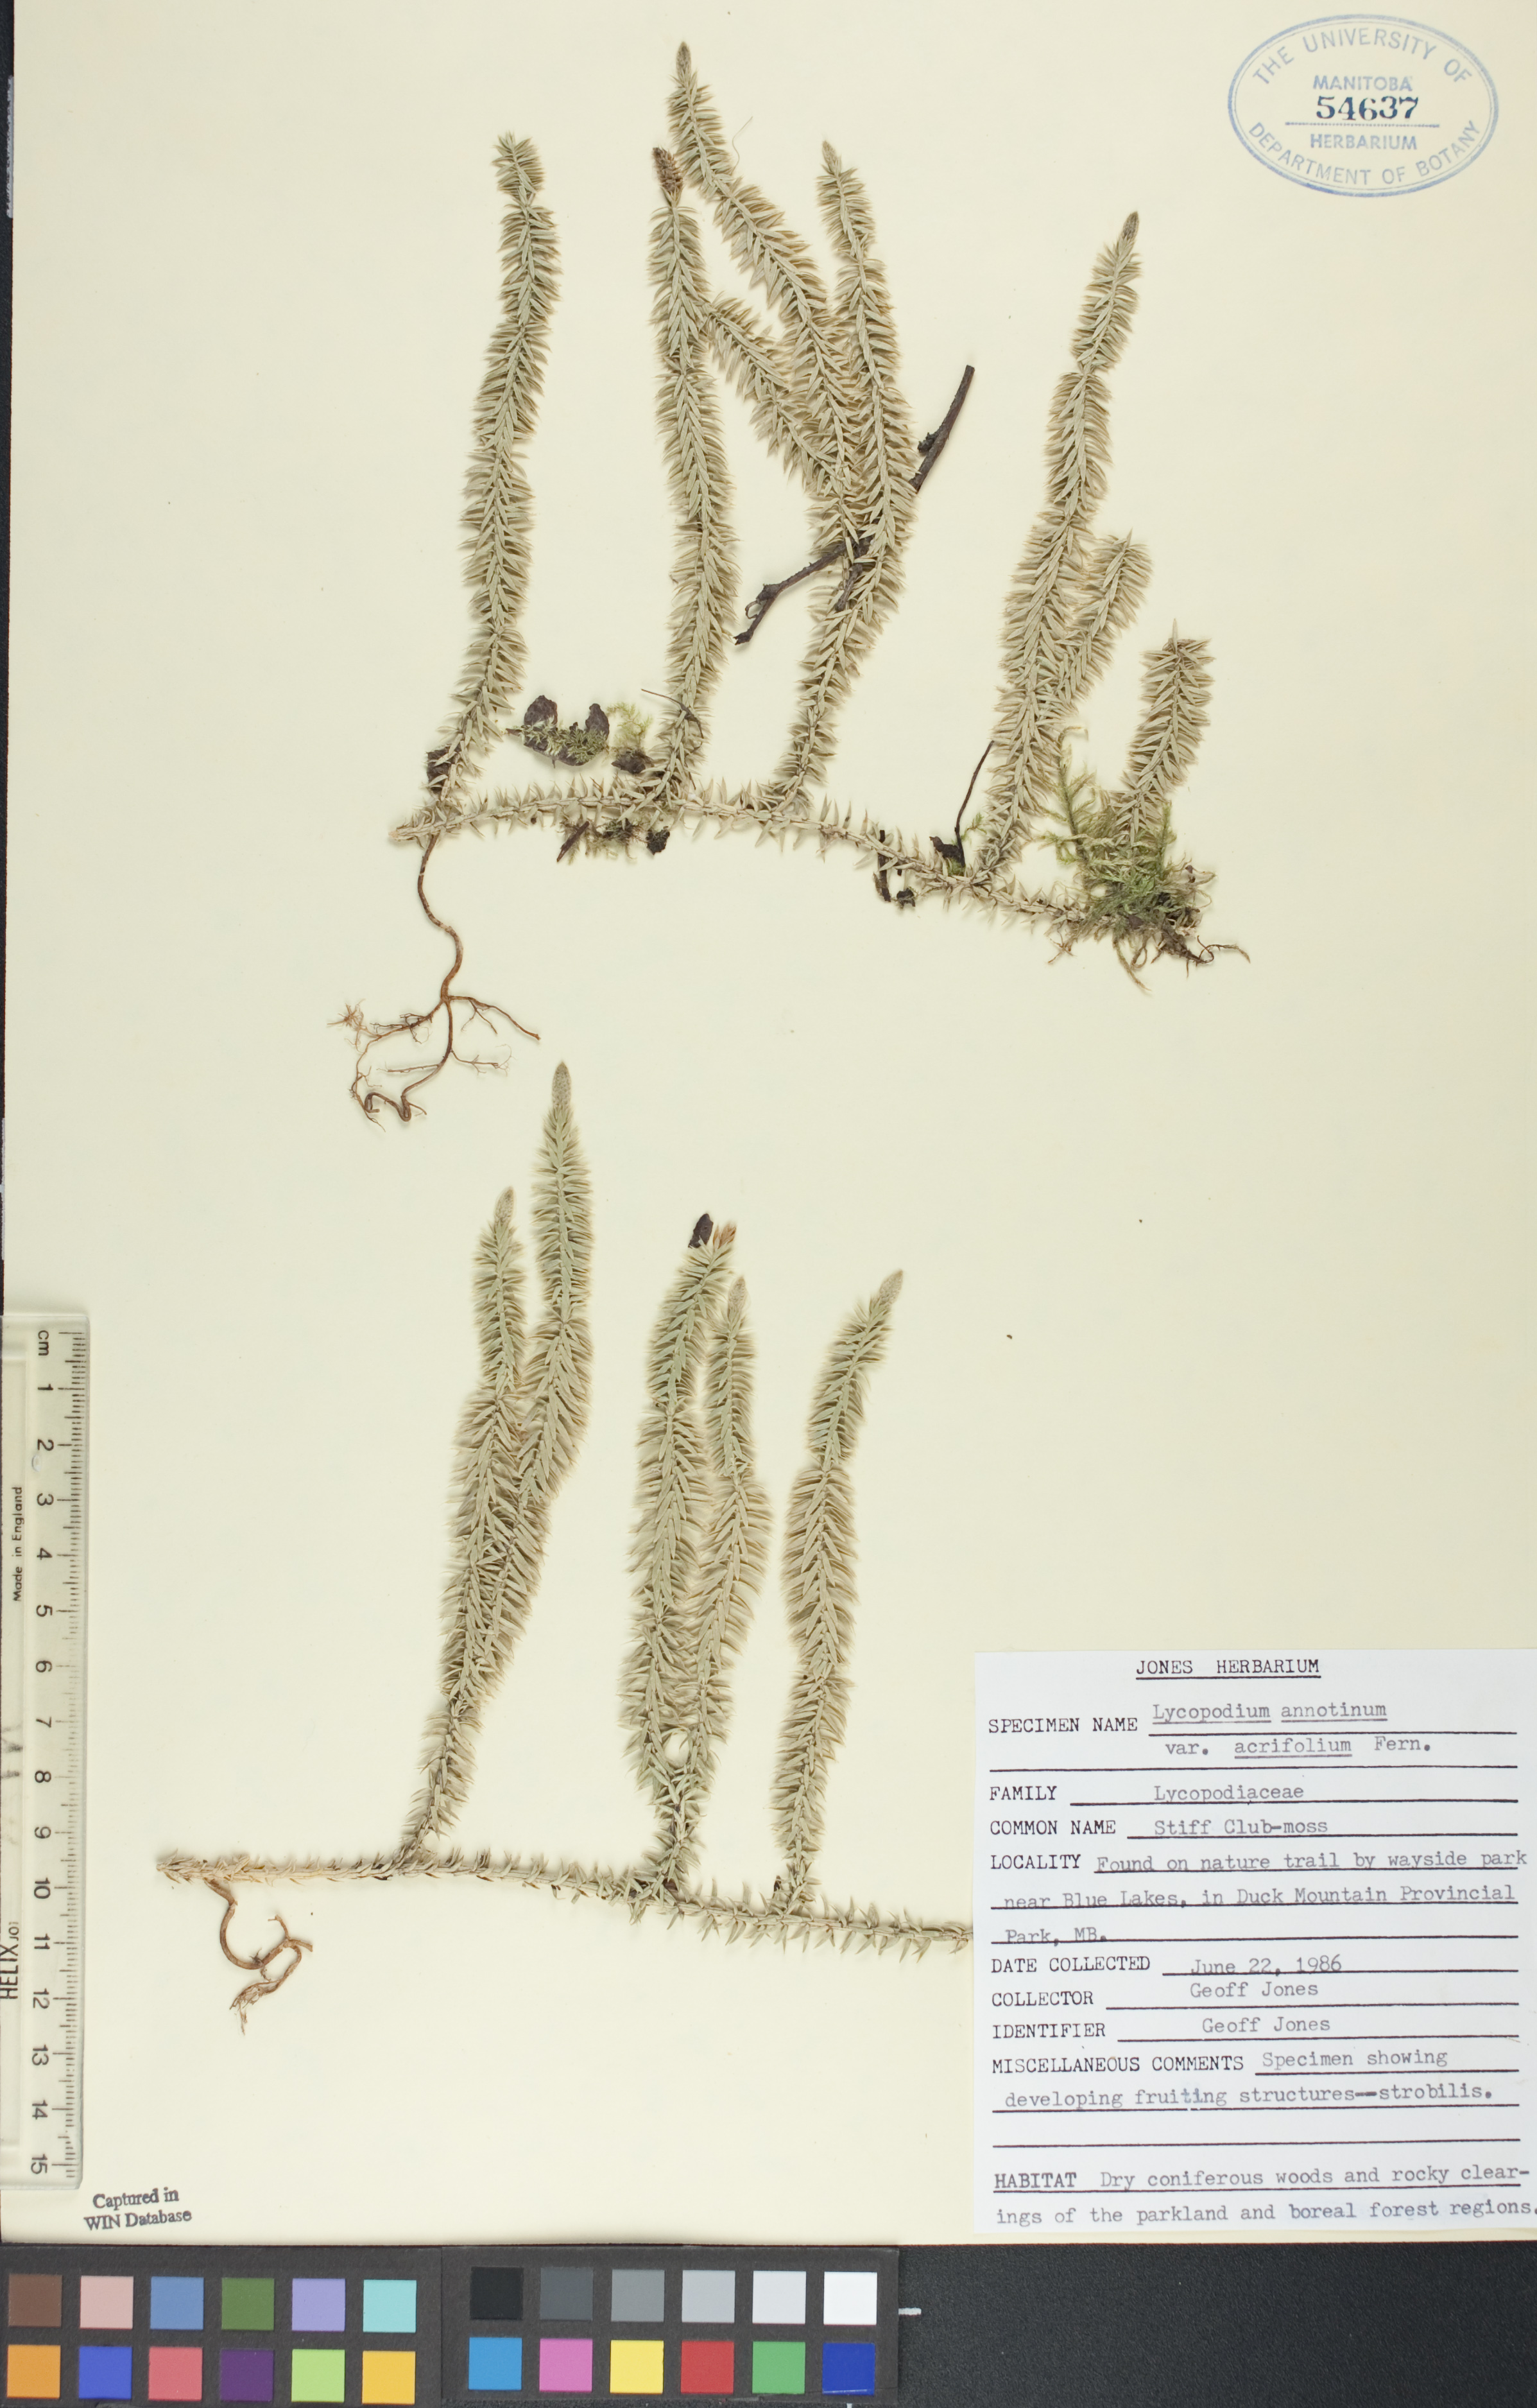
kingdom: Plantae
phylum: Tracheophyta
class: Lycopodiopsida
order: Lycopodiales
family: Lycopodiaceae
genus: Spinulum
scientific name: Spinulum annotinum
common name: Interrupted club-moss
